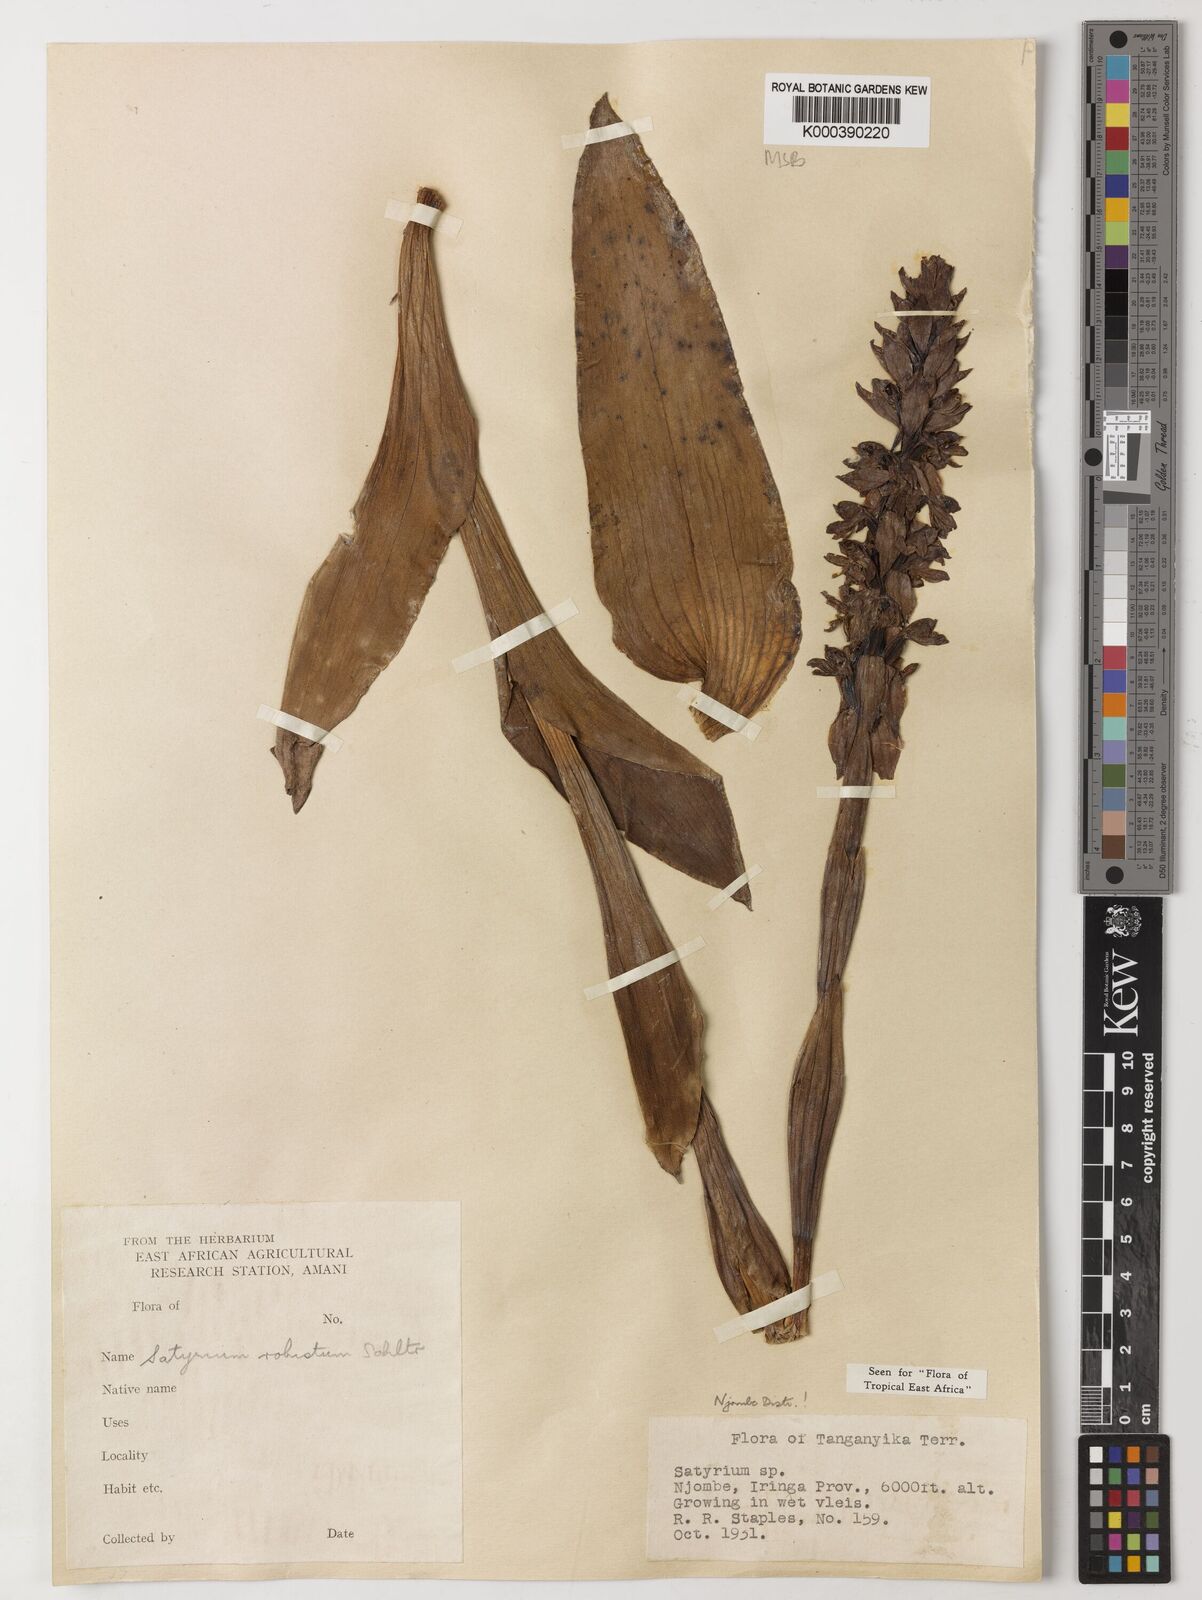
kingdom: Plantae
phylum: Tracheophyta
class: Liliopsida
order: Asparagales
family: Orchidaceae
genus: Satyrium
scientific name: Satyrium robustum
